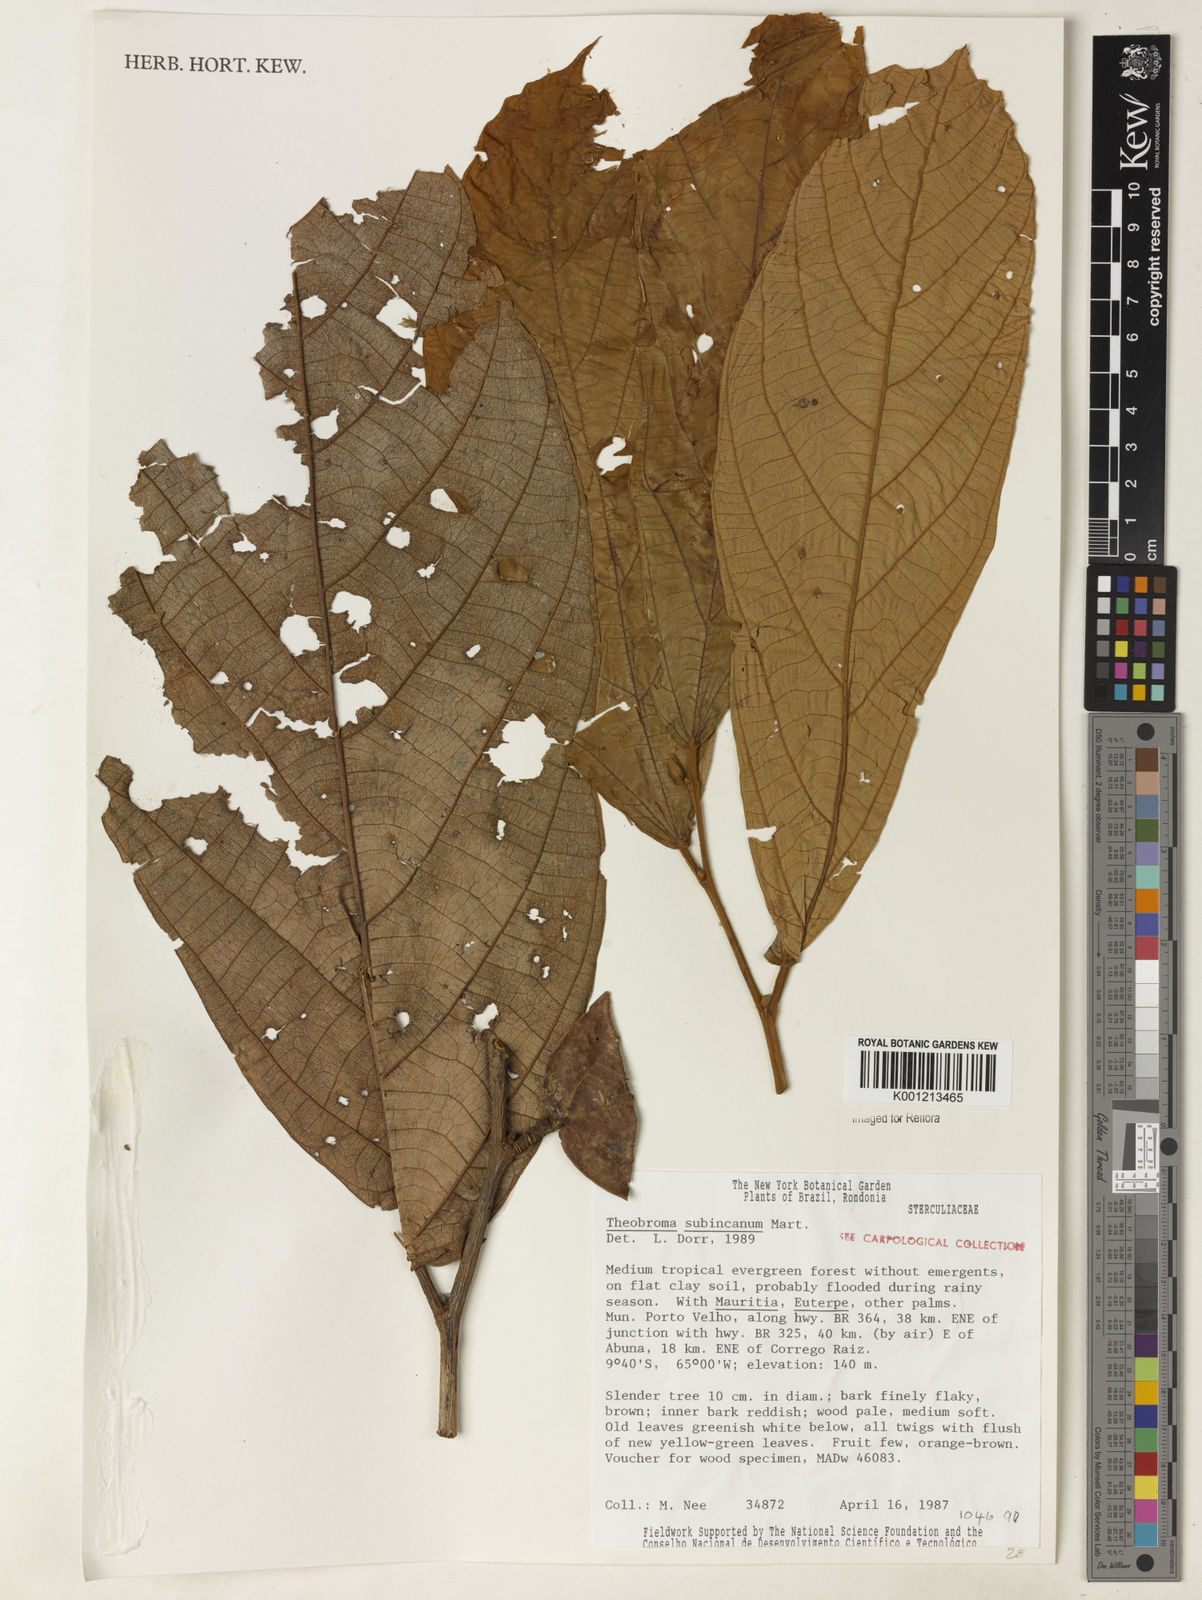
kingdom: Plantae
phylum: Tracheophyta
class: Magnoliopsida
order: Malvales
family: Malvaceae
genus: Theobroma
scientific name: Theobroma subincanum
